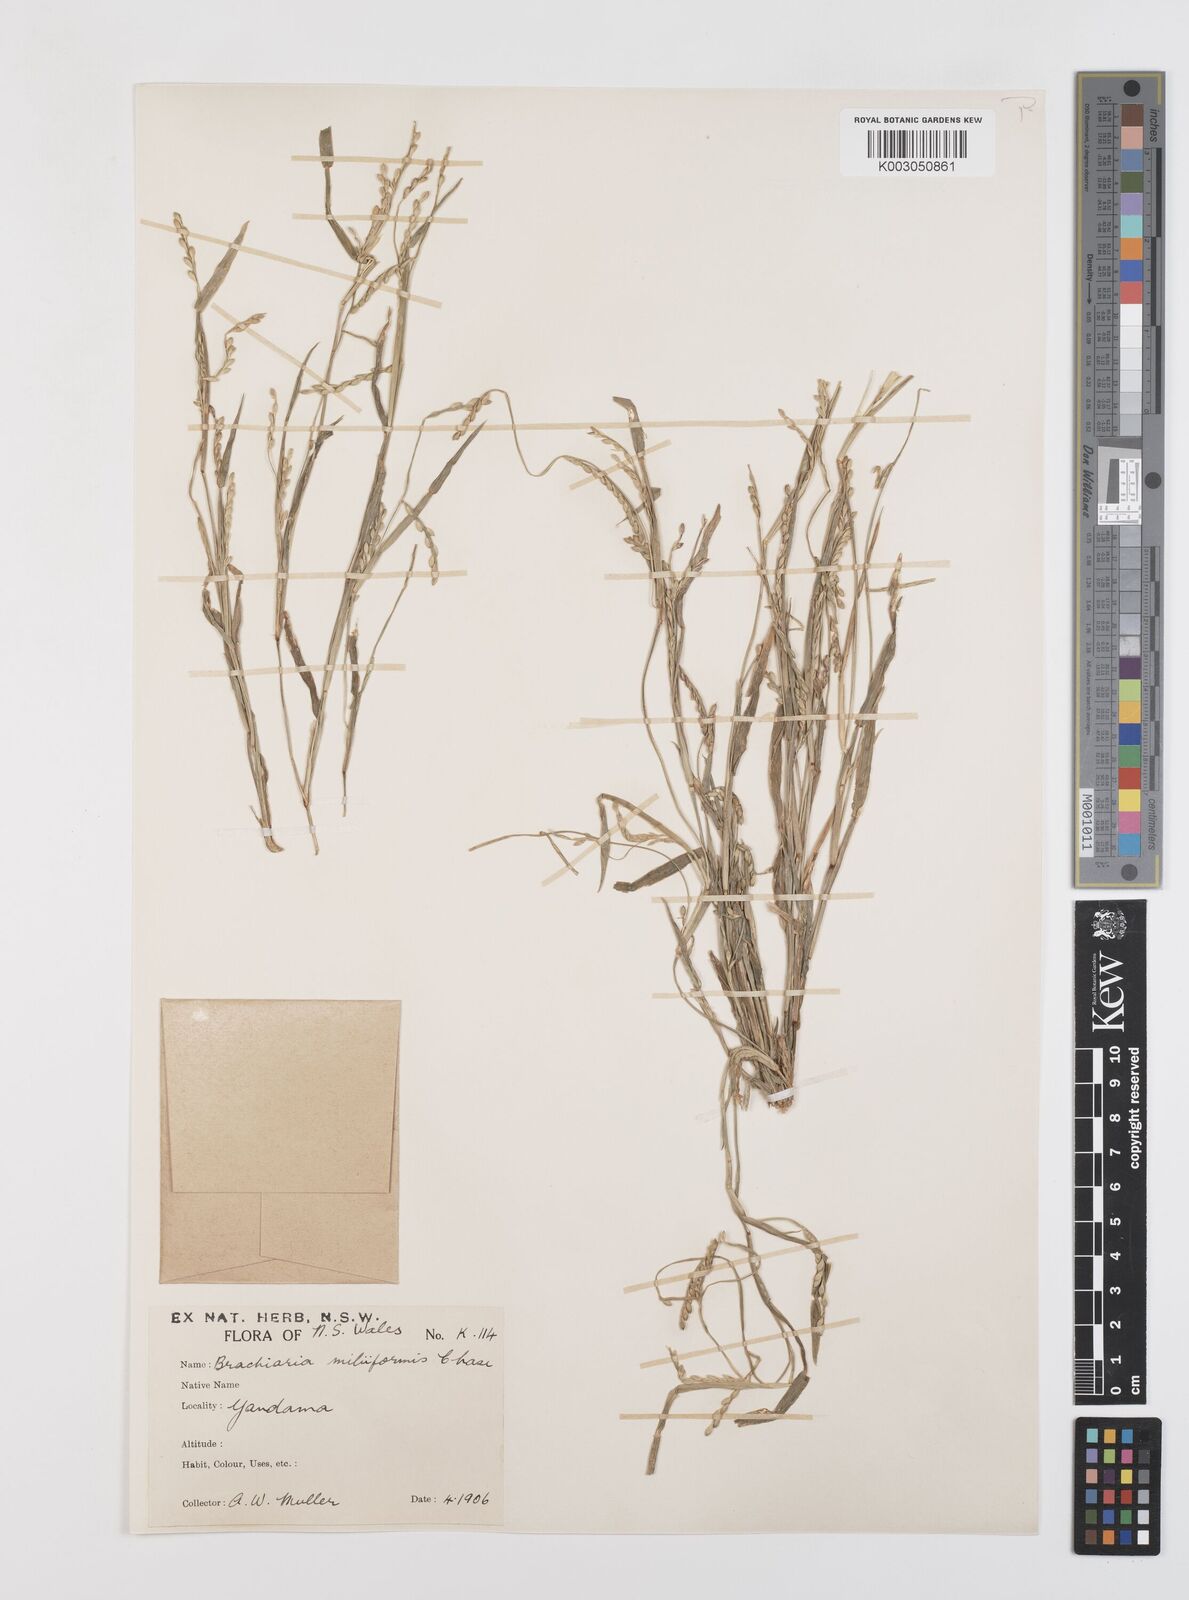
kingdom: Plantae
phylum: Tracheophyta
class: Liliopsida
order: Poales
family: Poaceae
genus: Urochloa
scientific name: Urochloa subquadripara
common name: Armgrass millet
